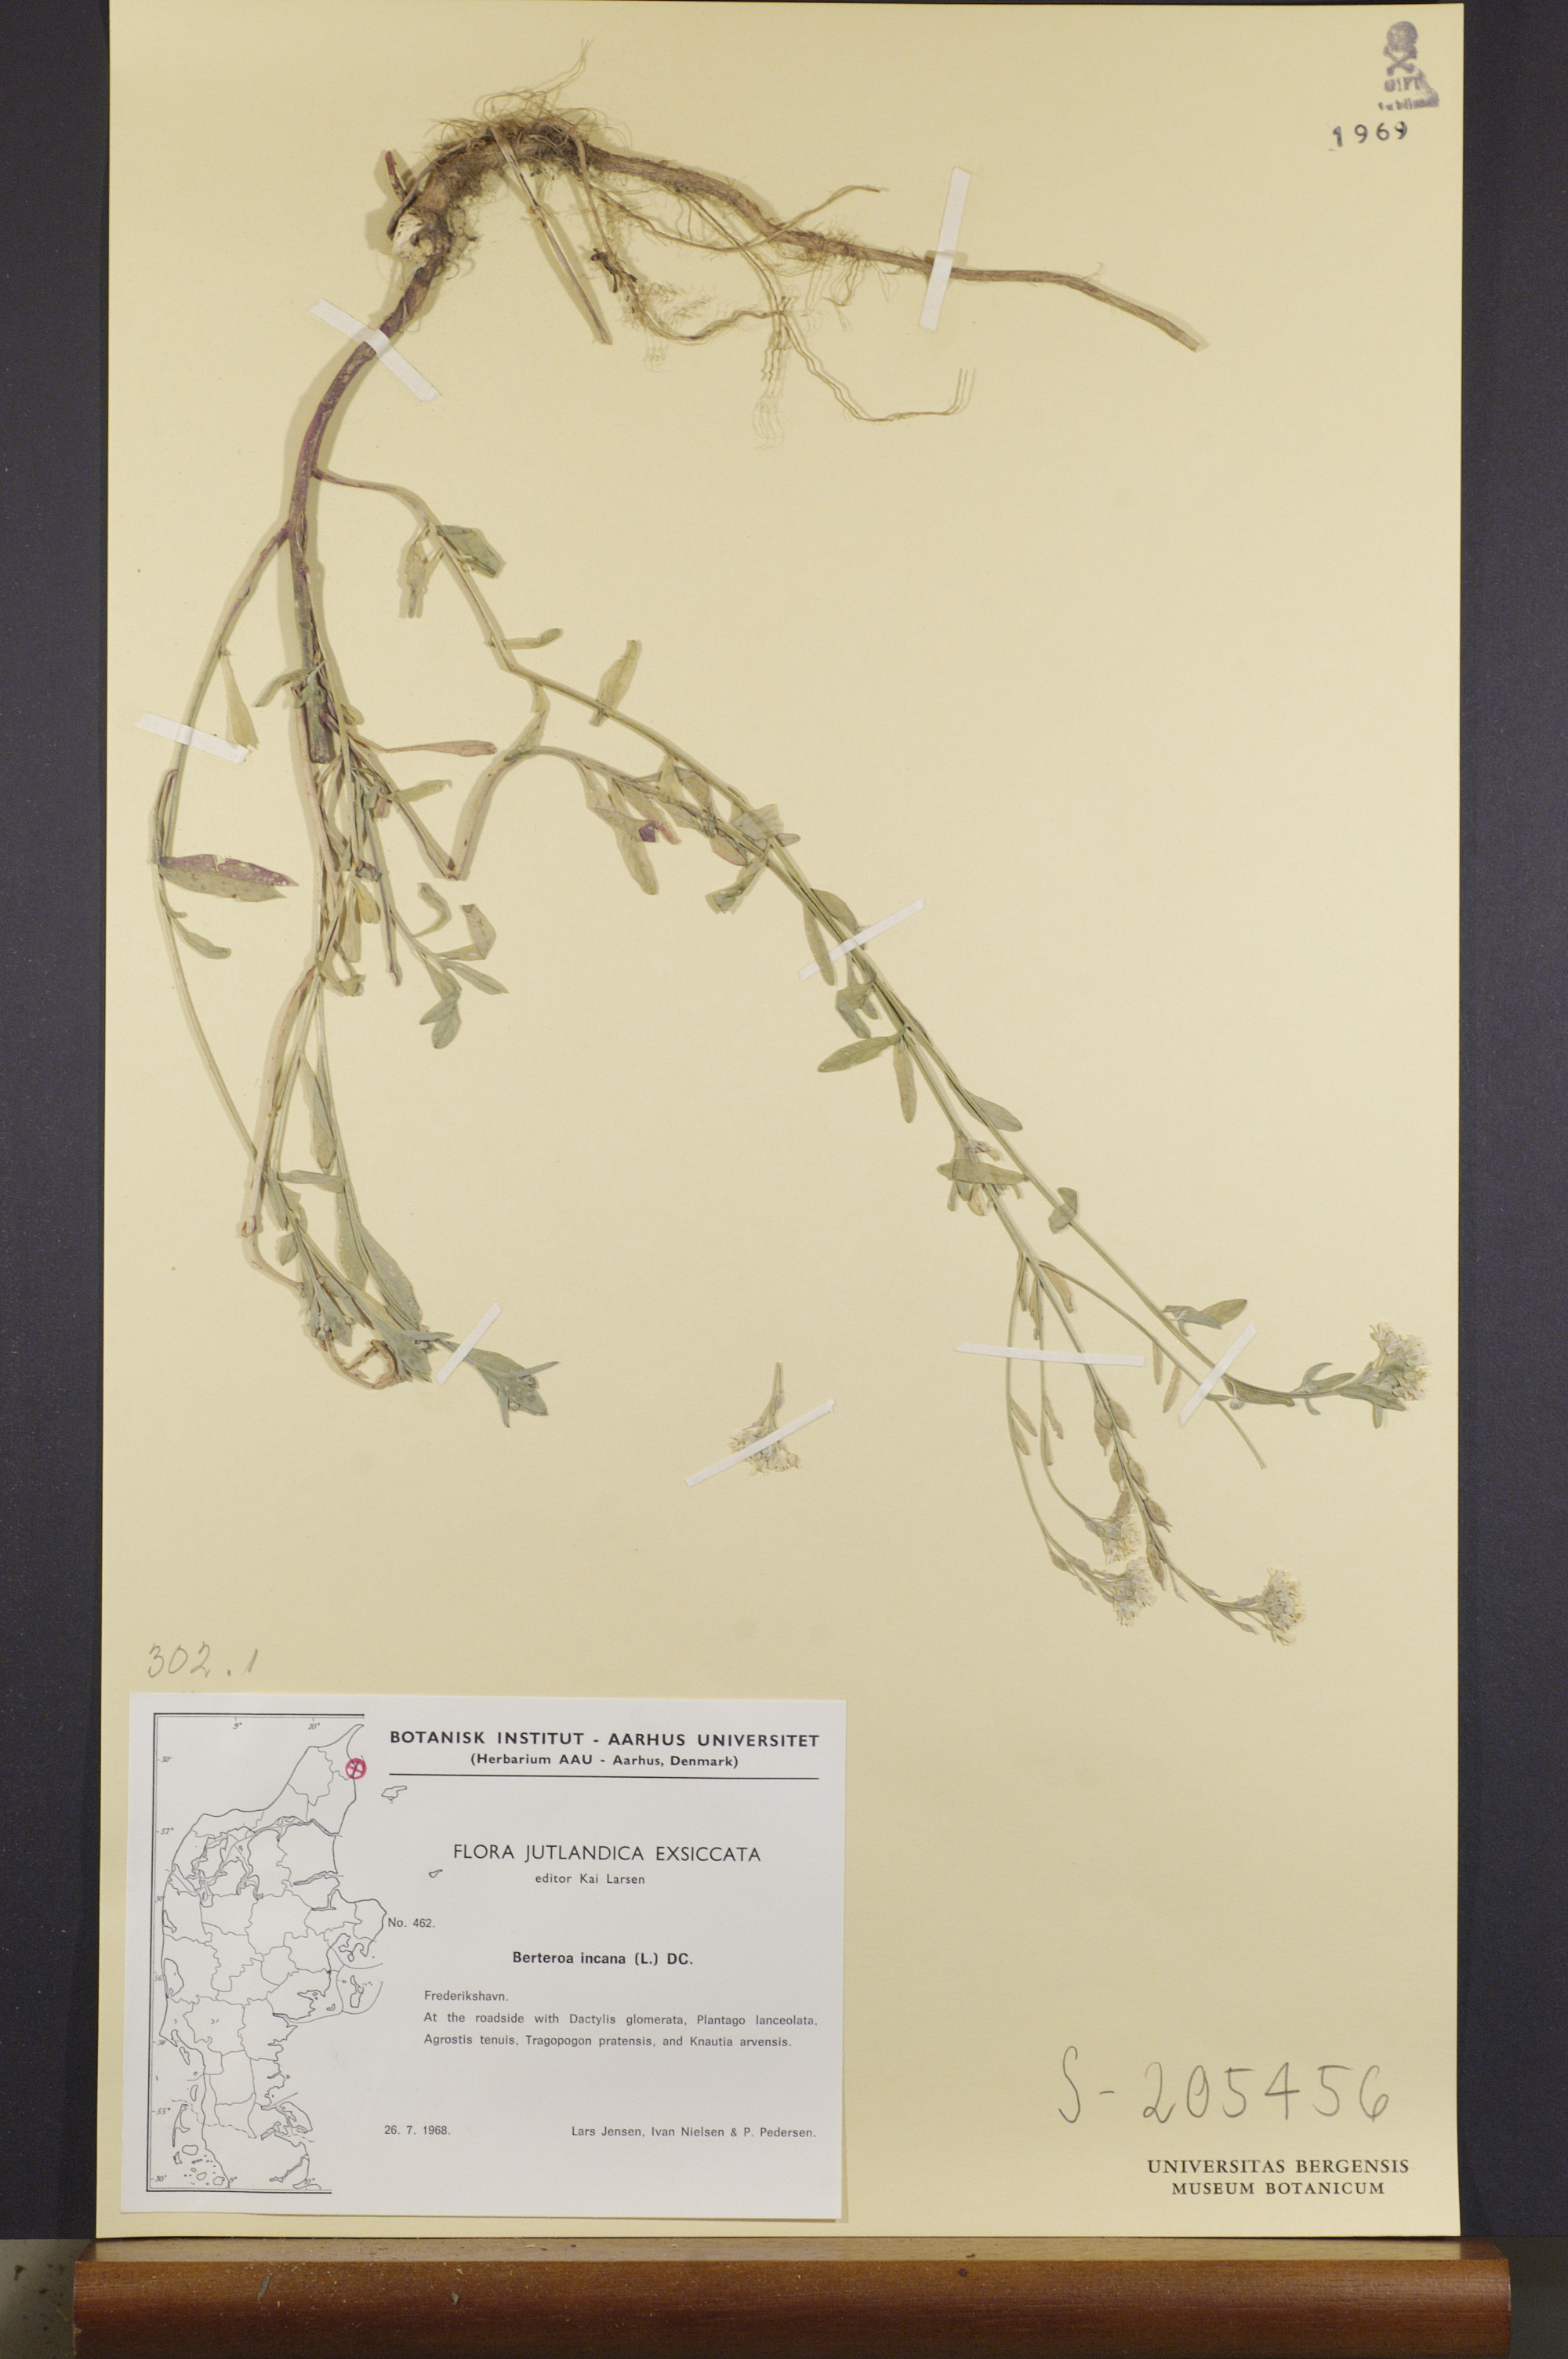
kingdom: Plantae
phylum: Tracheophyta
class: Magnoliopsida
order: Brassicales
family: Brassicaceae
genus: Berteroa
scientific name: Berteroa incana
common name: Hoary alison
